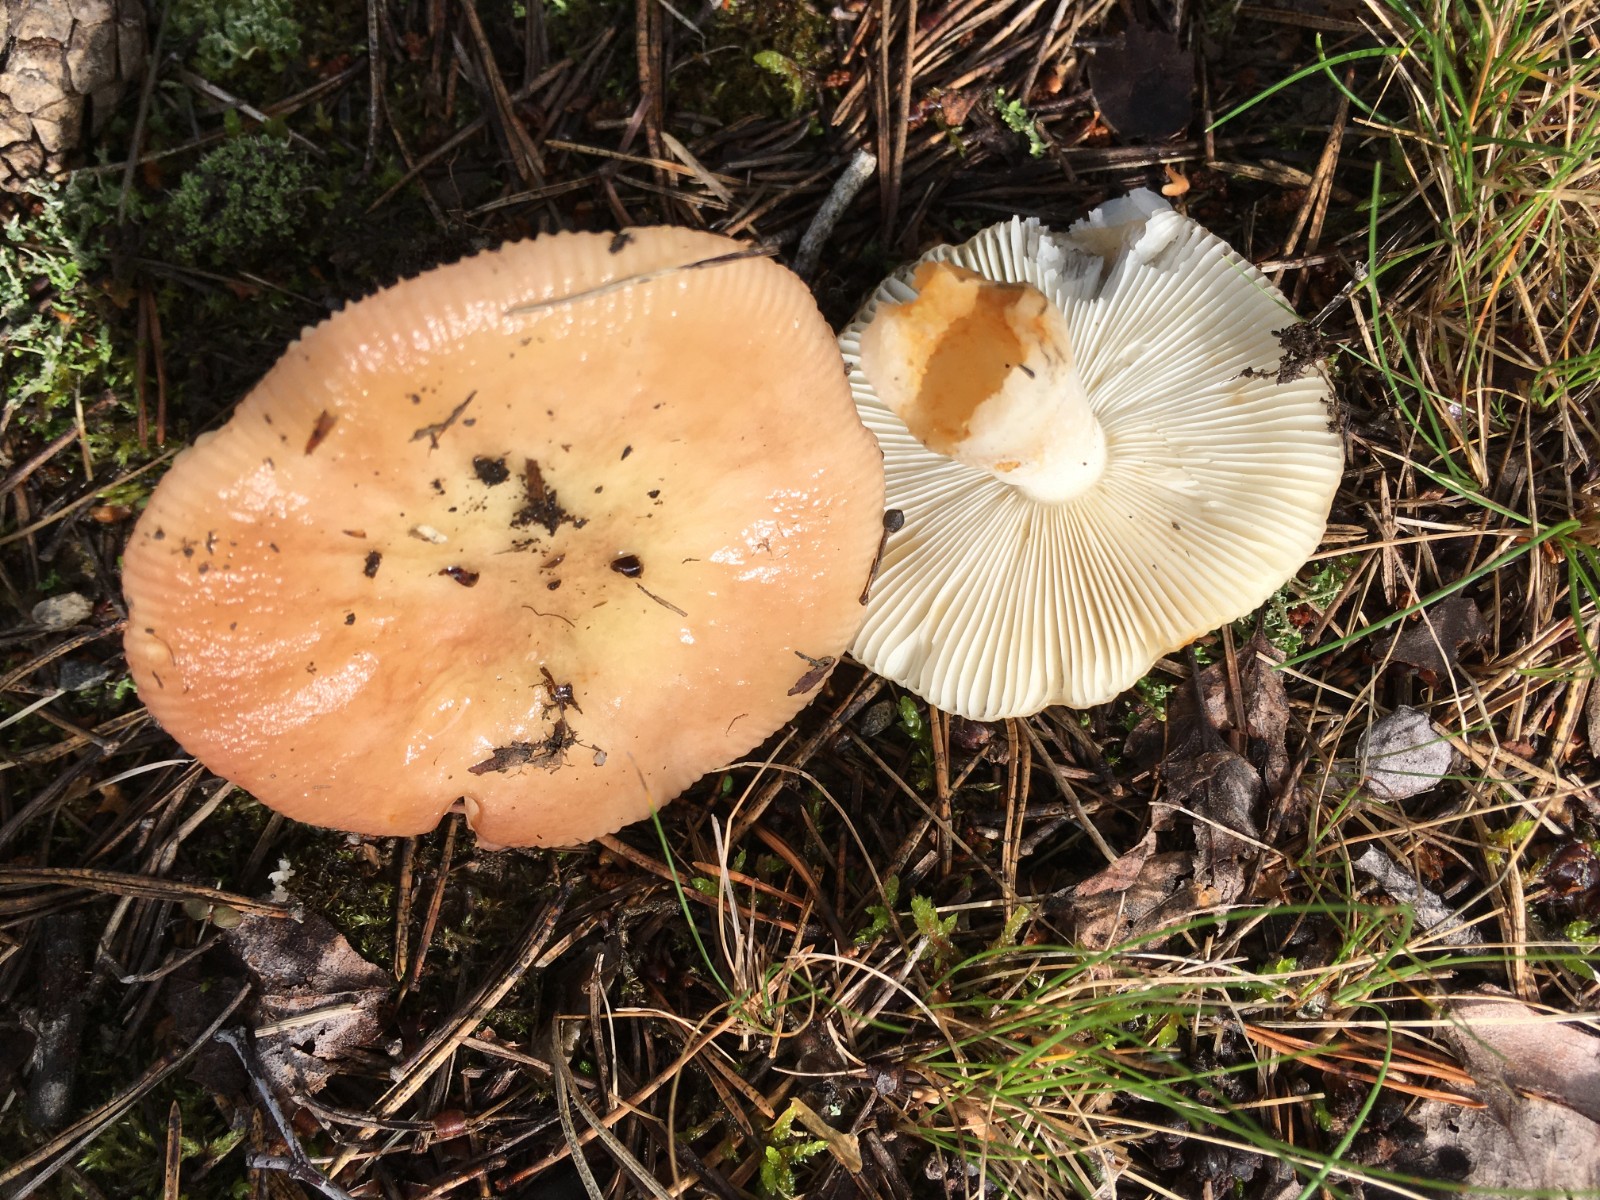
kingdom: Fungi
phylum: Basidiomycota
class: Agaricomycetes
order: Russulales
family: Russulaceae
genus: Russula
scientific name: Russula versicolor
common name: foranderlig skørhat
